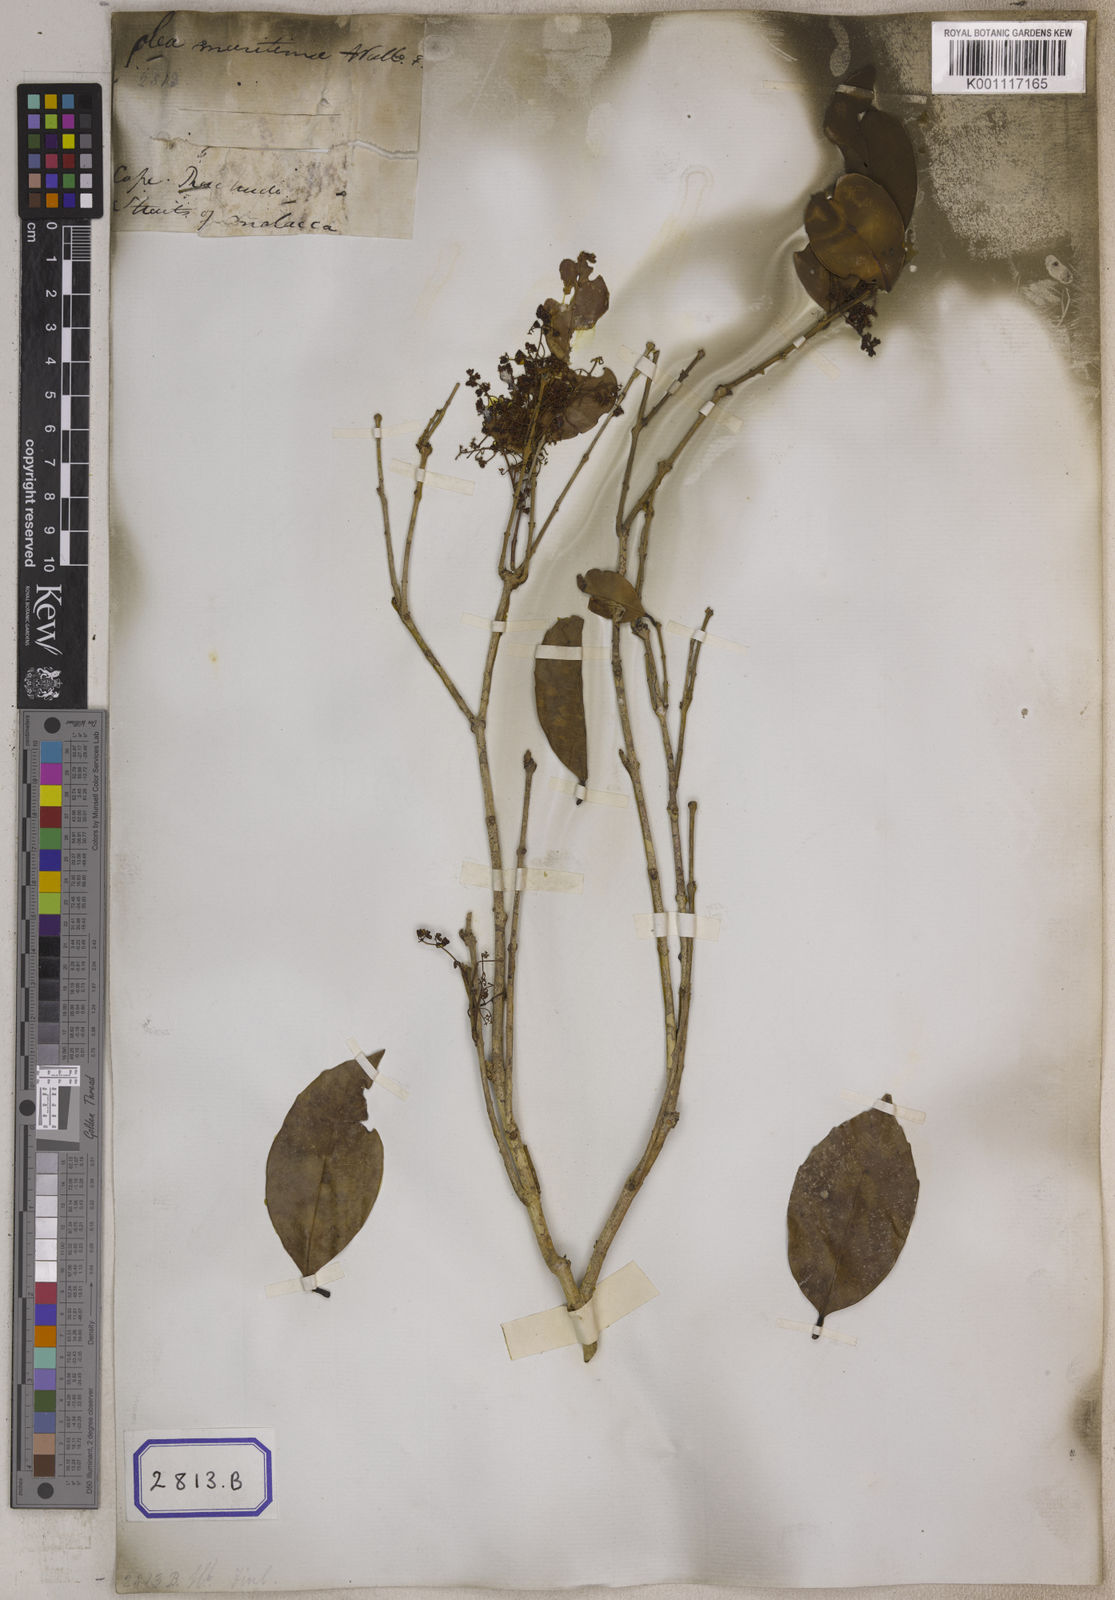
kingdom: Plantae
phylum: Tracheophyta
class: Magnoliopsida
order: Lamiales
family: Oleaceae
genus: Olea
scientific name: Olea
